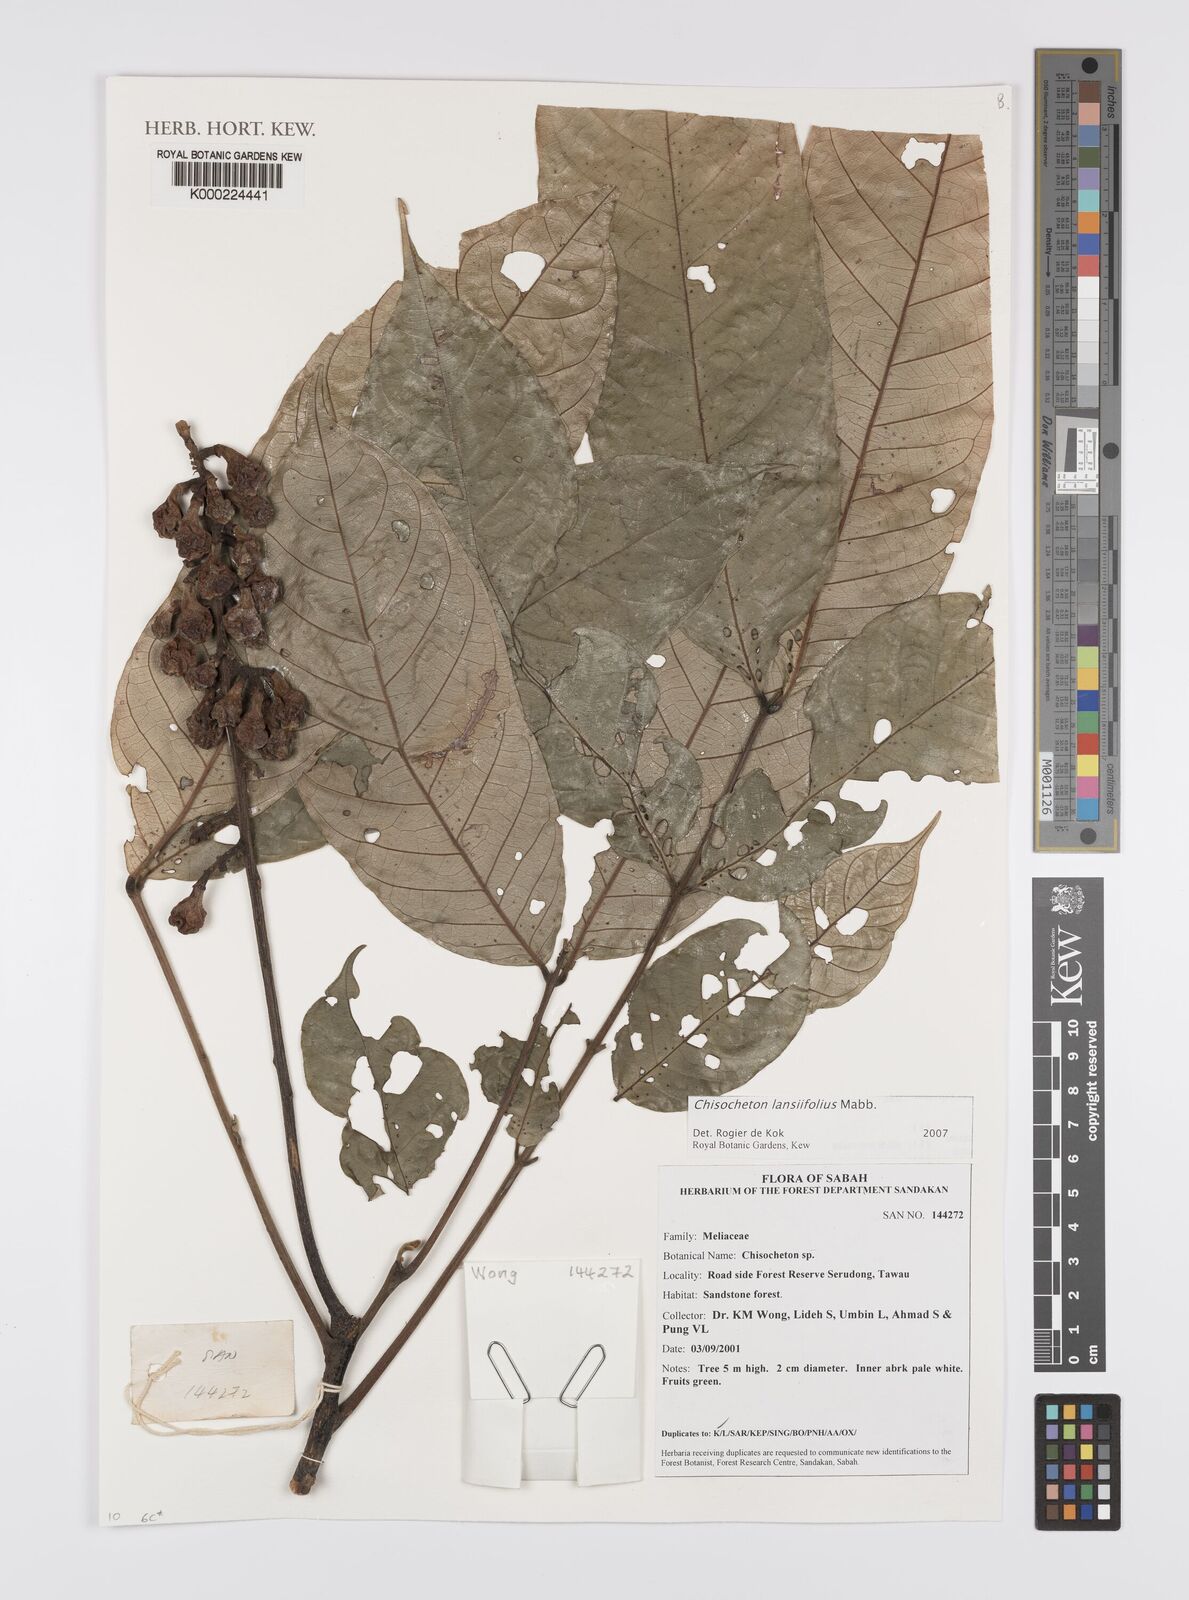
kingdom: Plantae
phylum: Tracheophyta
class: Magnoliopsida
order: Sapindales
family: Meliaceae
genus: Chisocheton
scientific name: Chisocheton lansiifolius
